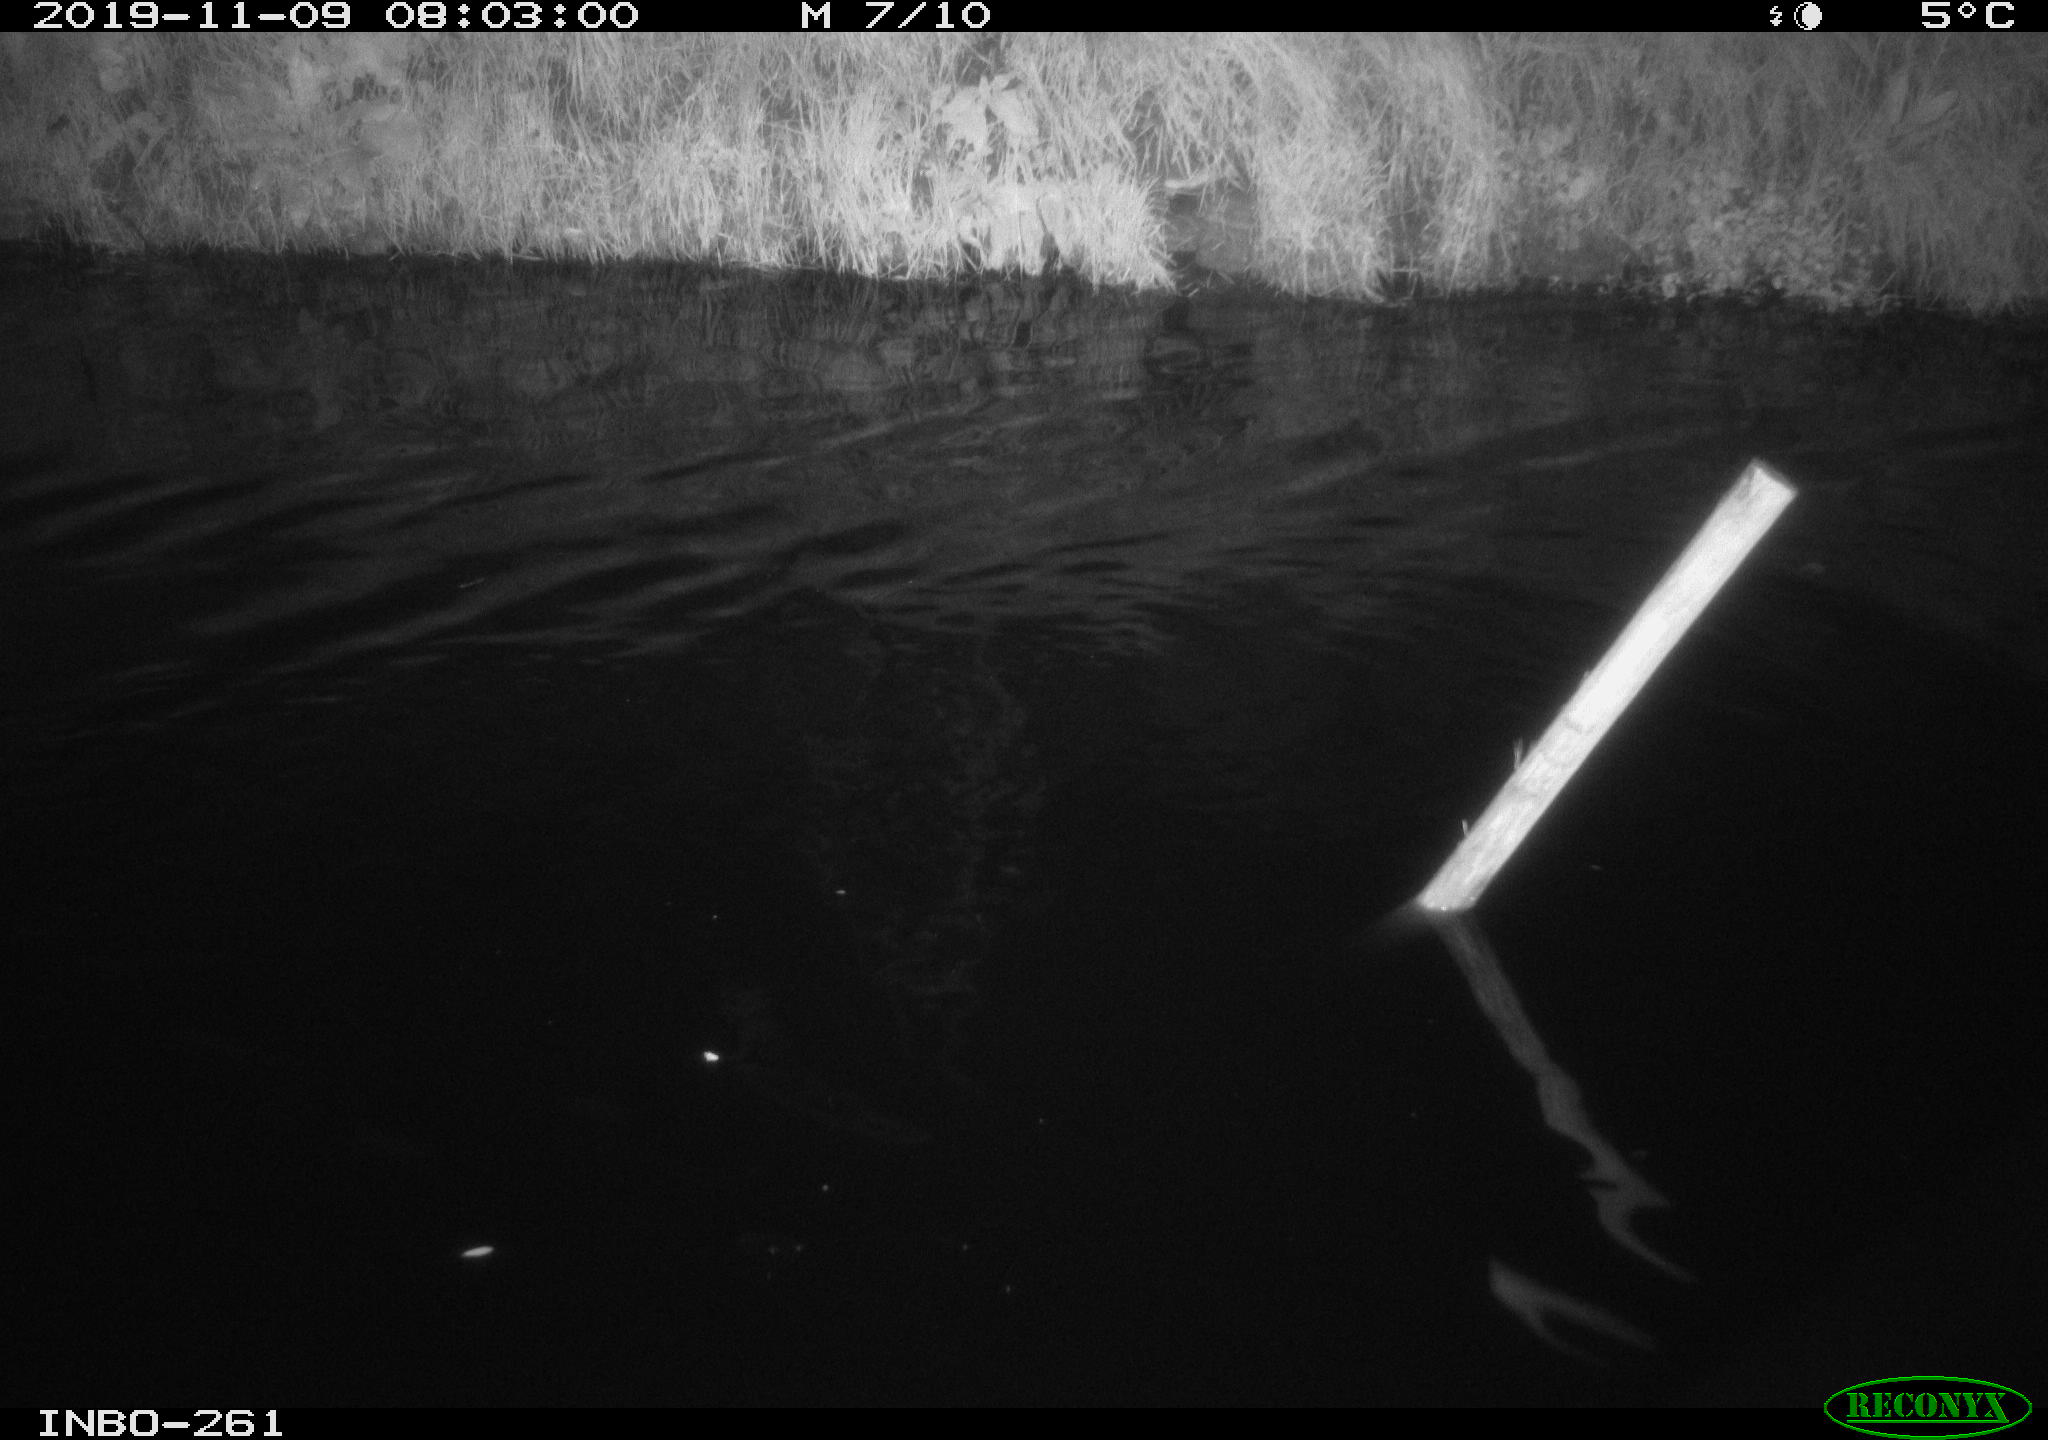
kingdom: Animalia
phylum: Chordata
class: Aves
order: Anseriformes
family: Anatidae
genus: Anas
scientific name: Anas platyrhynchos
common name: Mallard
